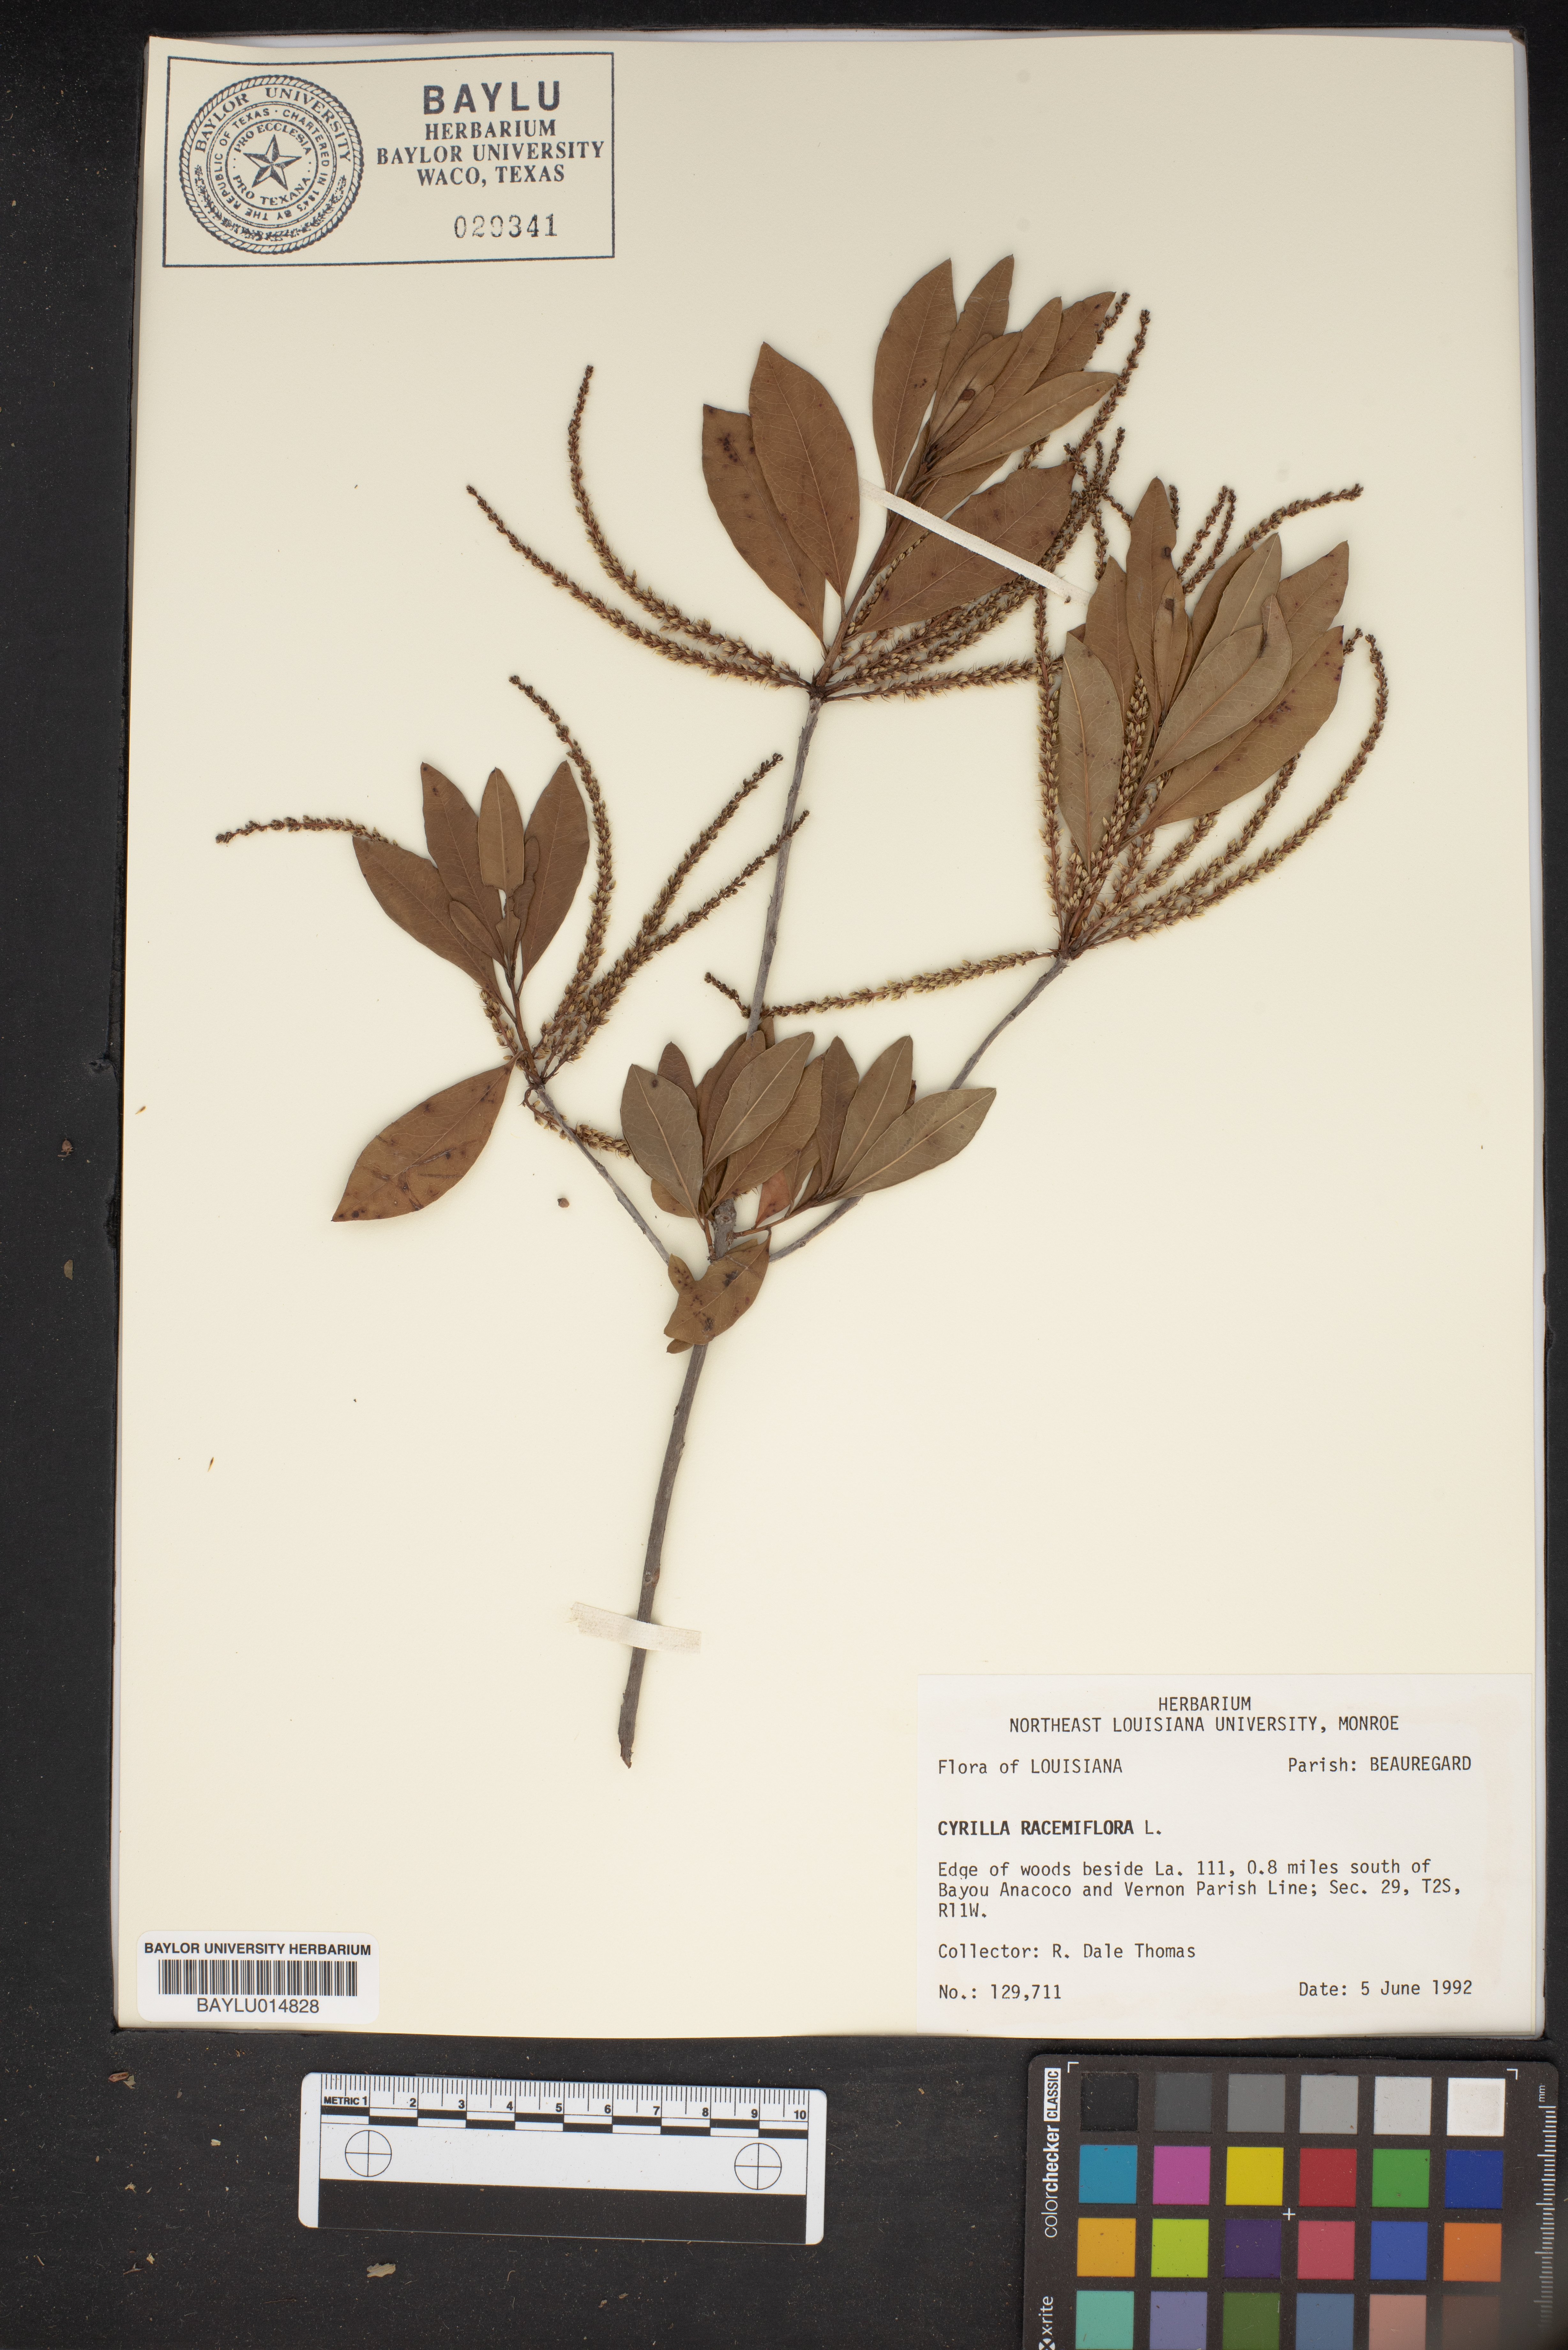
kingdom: Plantae
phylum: Tracheophyta
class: Magnoliopsida
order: Ericales
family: Cyrillaceae
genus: Cyrilla
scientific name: Cyrilla racemiflora
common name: Black titi
